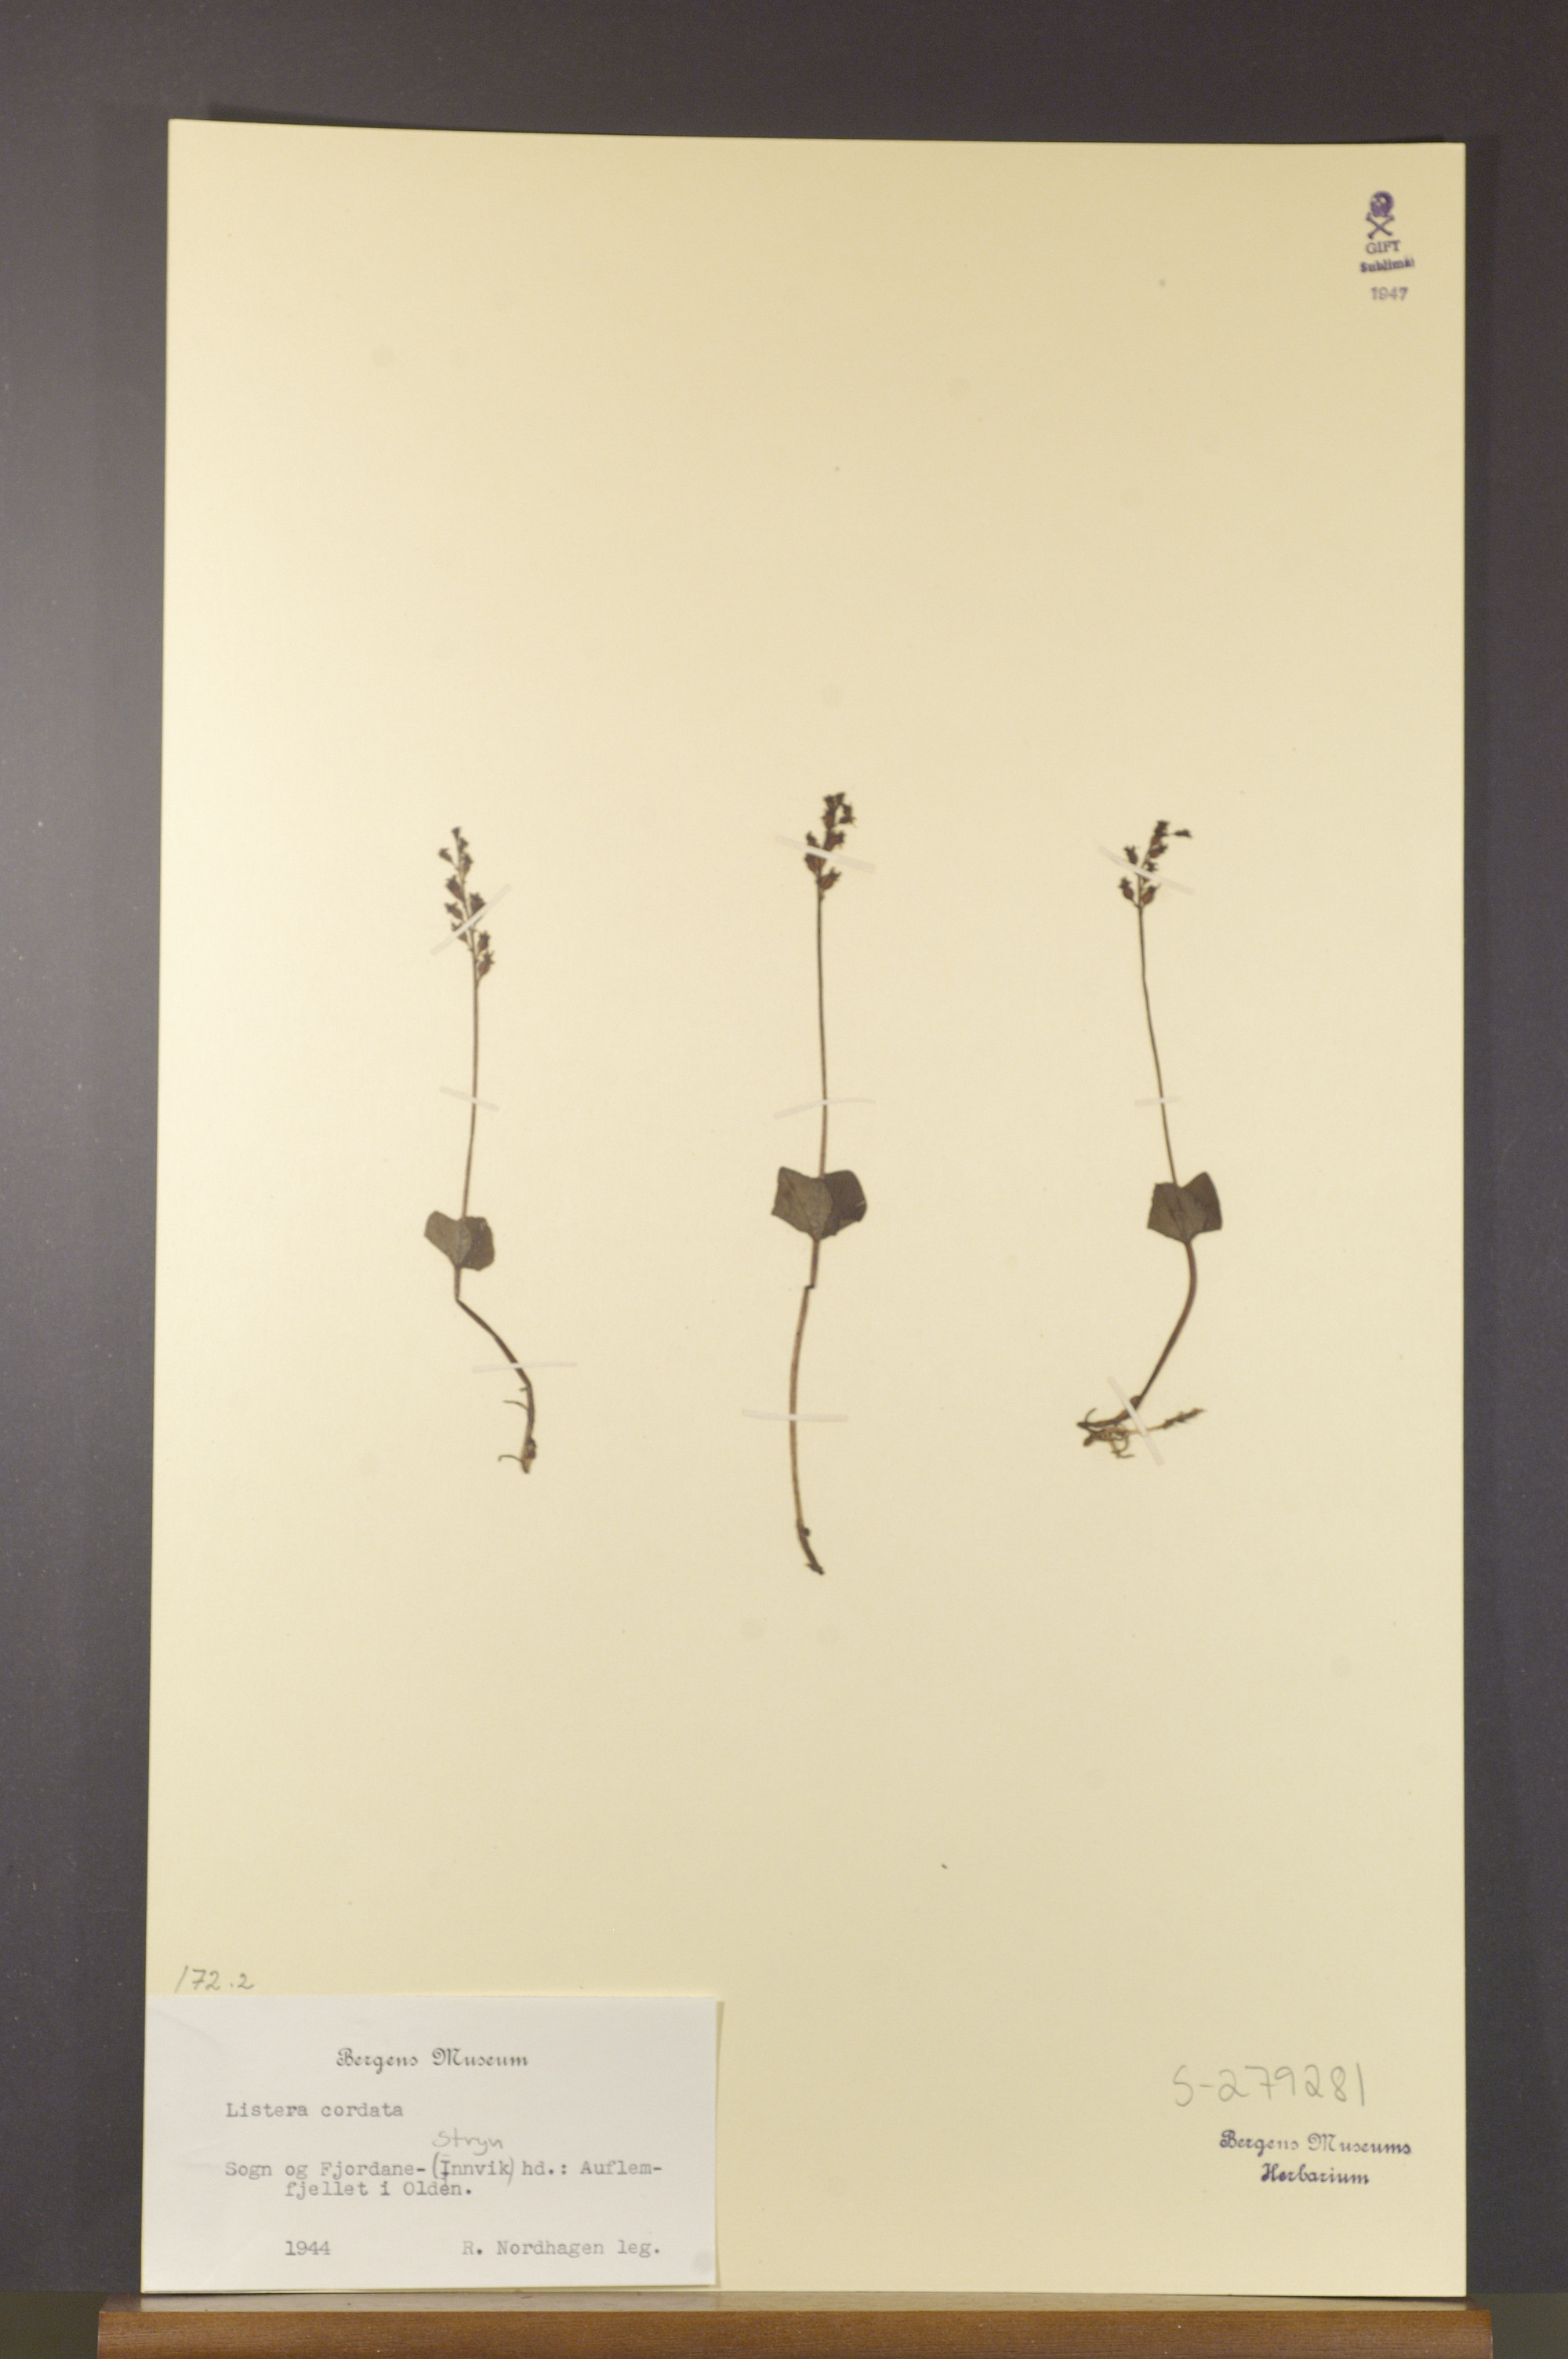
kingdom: Plantae
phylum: Tracheophyta
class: Liliopsida
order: Asparagales
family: Orchidaceae
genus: Neottia
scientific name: Neottia cordata
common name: Lesser twayblade
